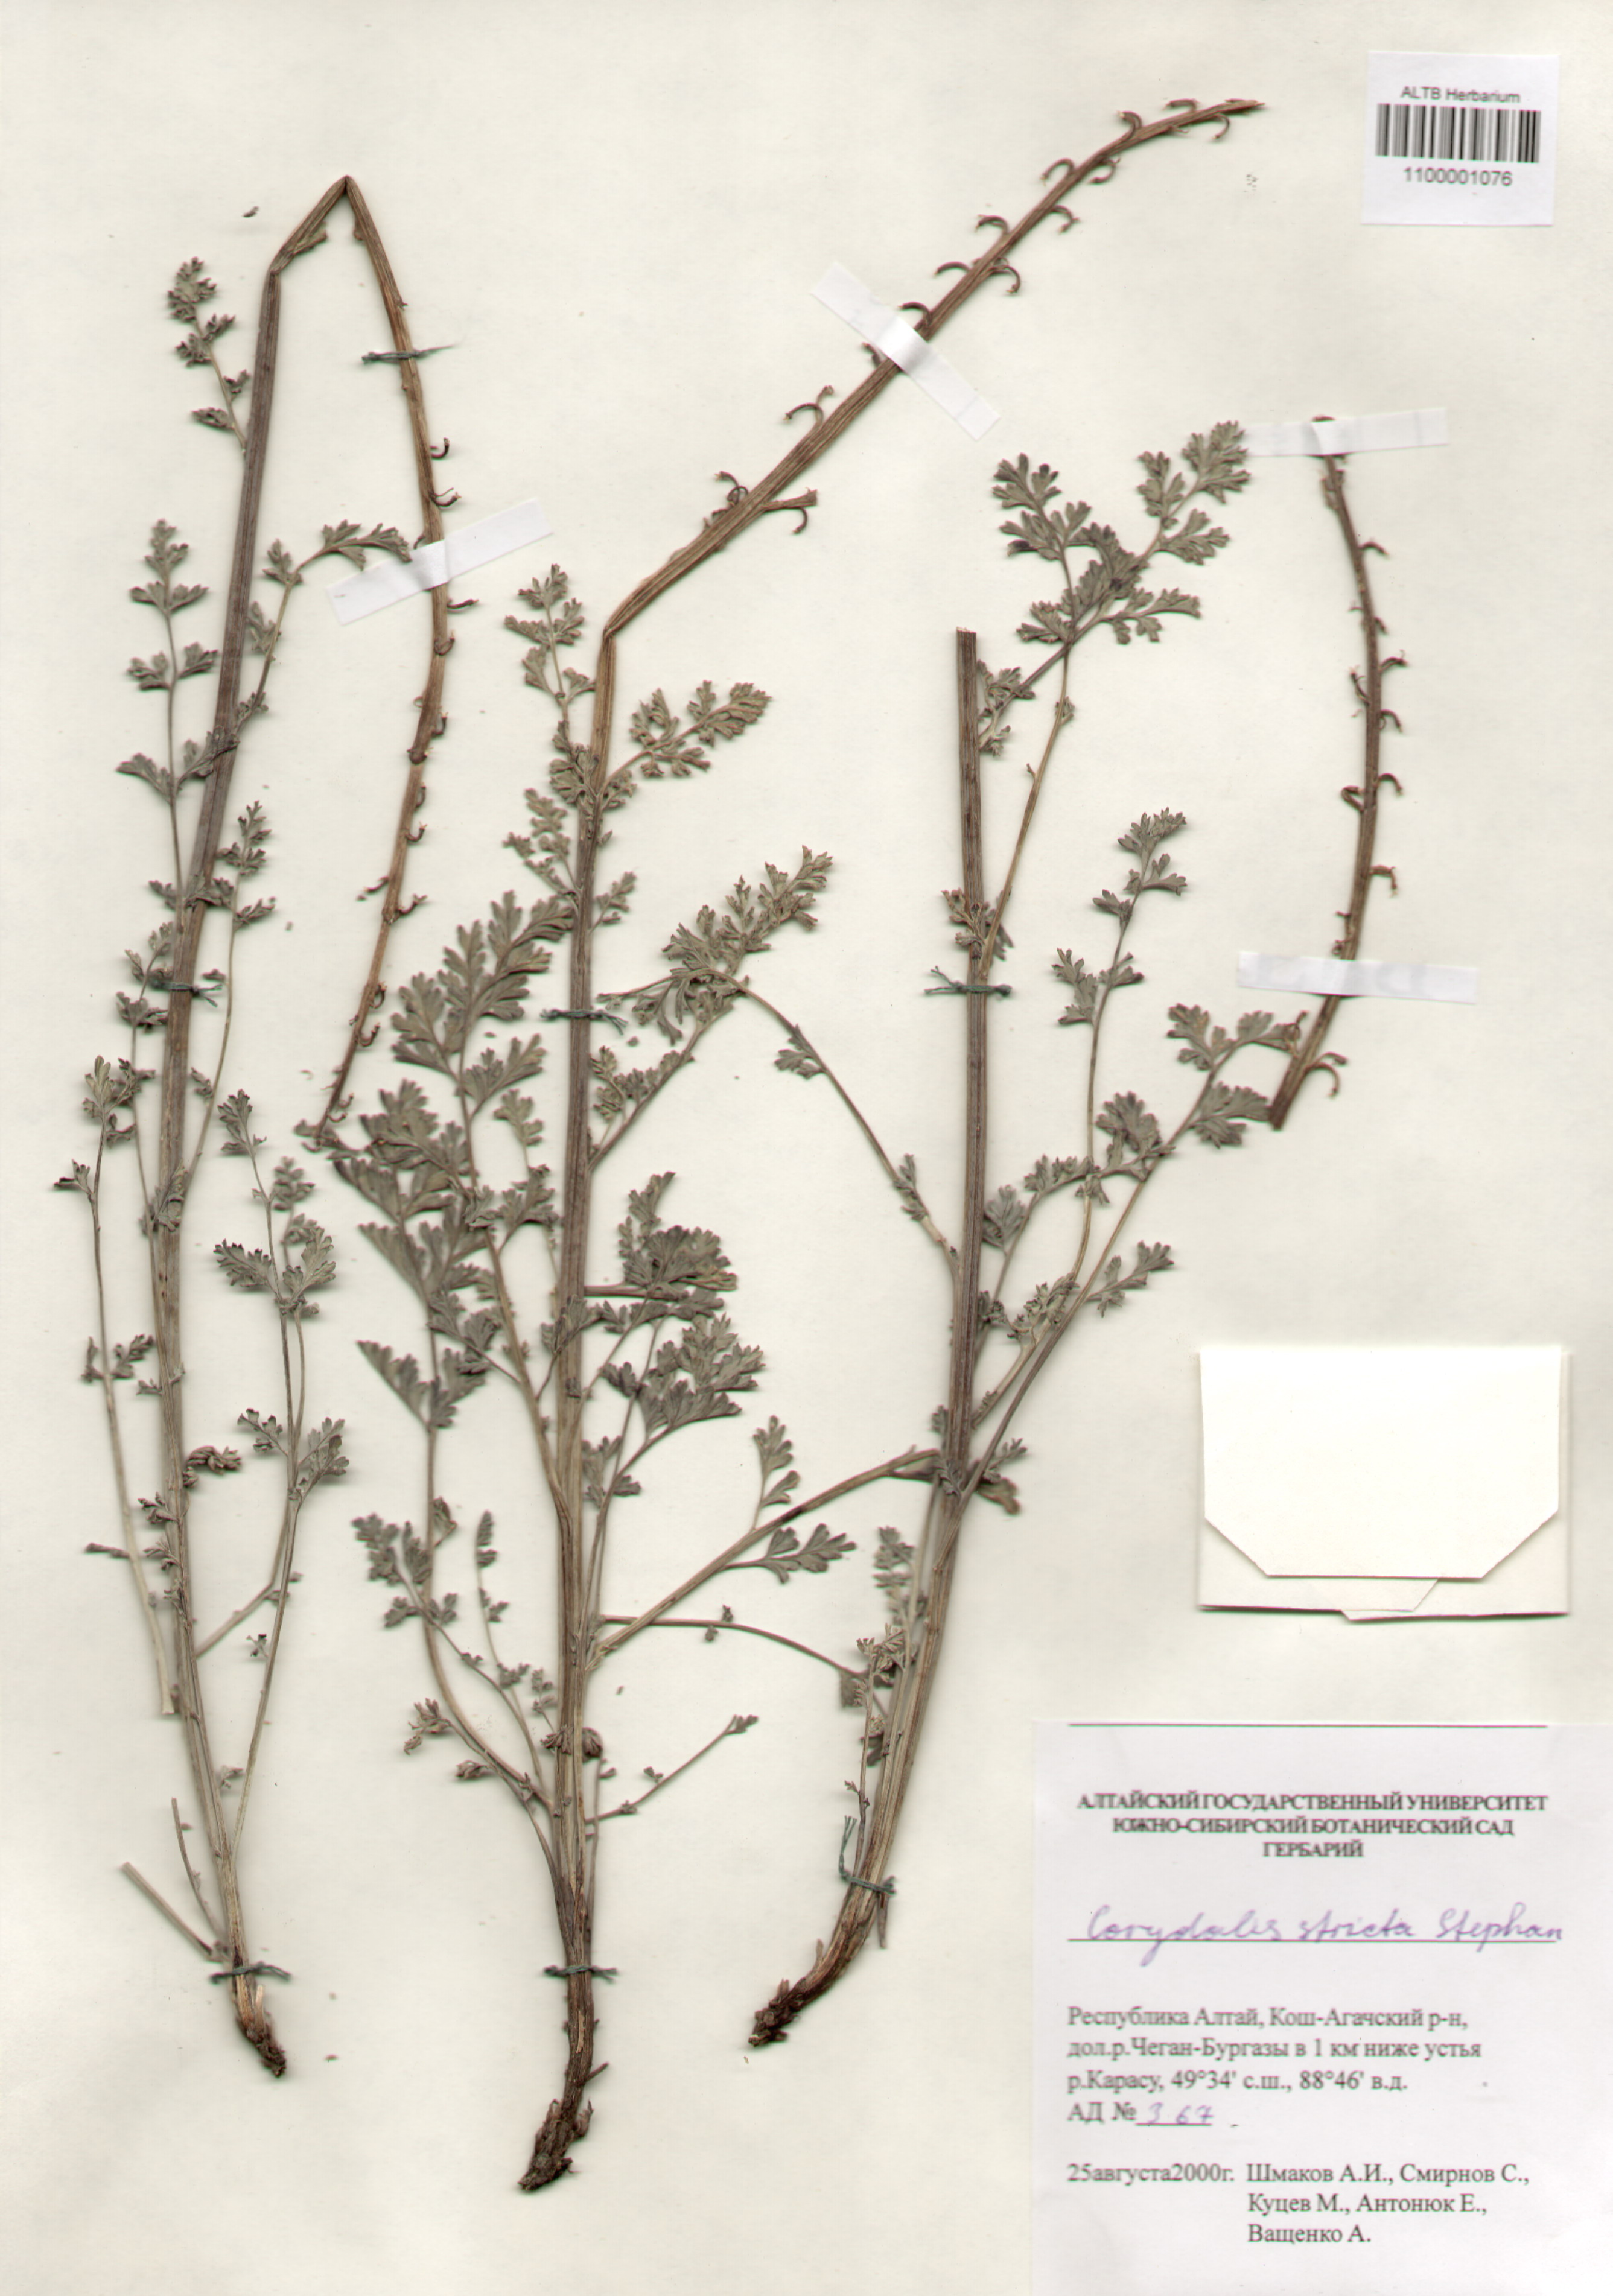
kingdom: Plantae
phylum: Tracheophyta
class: Magnoliopsida
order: Ranunculales
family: Papaveraceae
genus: Corydalis
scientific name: Corydalis stricta
